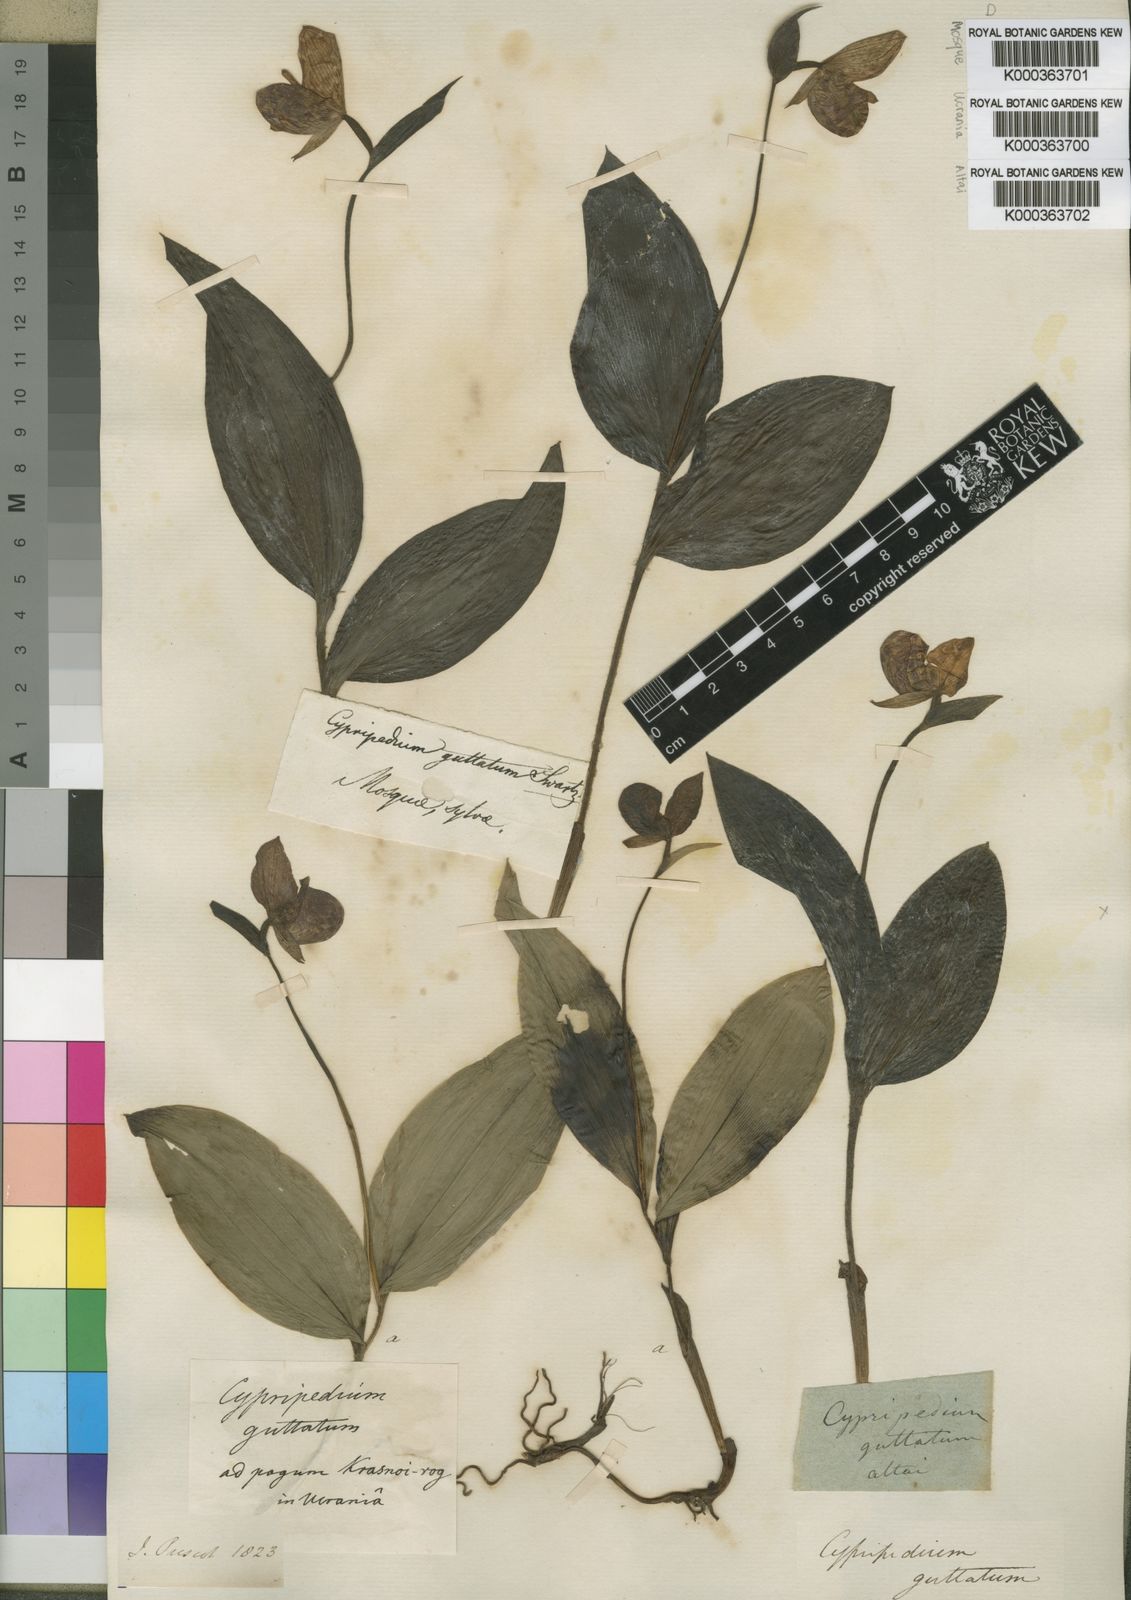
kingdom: Plantae
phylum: Tracheophyta
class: Liliopsida
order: Asparagales
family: Orchidaceae
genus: Cypripedium
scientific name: Cypripedium guttatum
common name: Pink lady slipper
